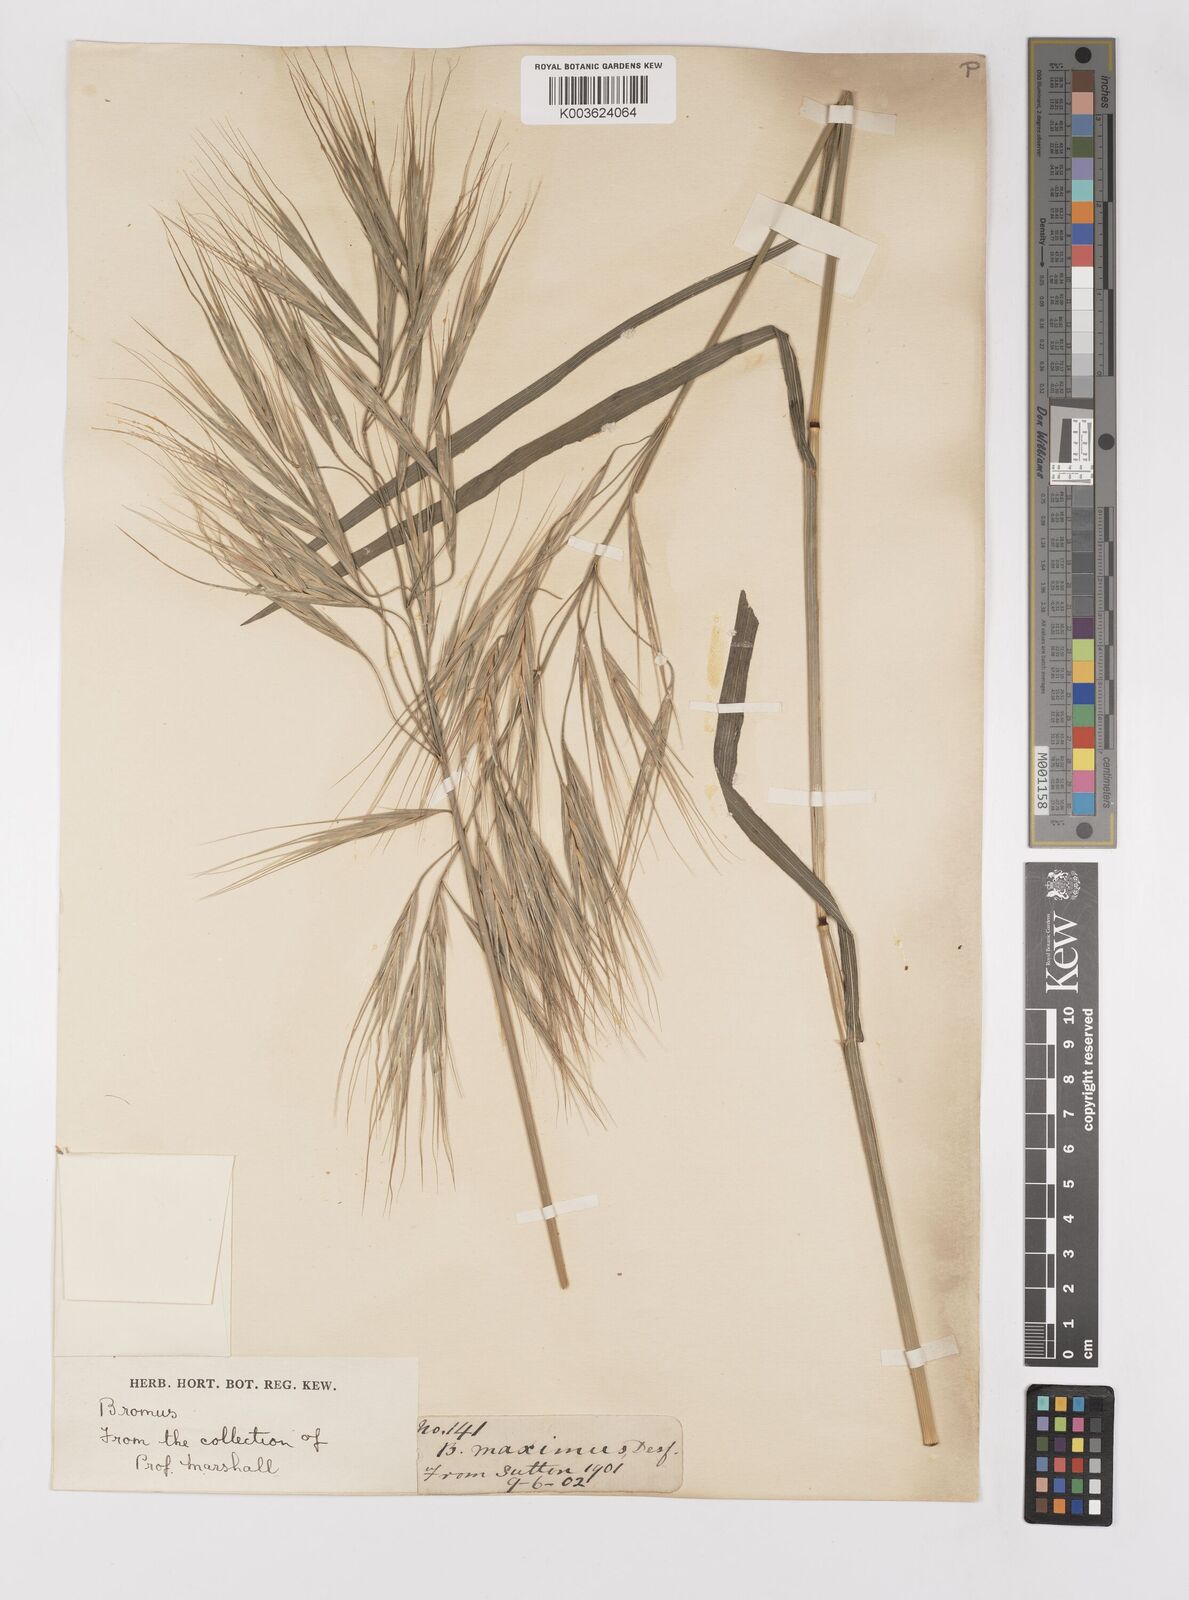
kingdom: Plantae
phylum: Tracheophyta
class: Liliopsida
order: Poales
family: Poaceae
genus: Bromus
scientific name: Bromus diandrus
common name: Ripgut brome
